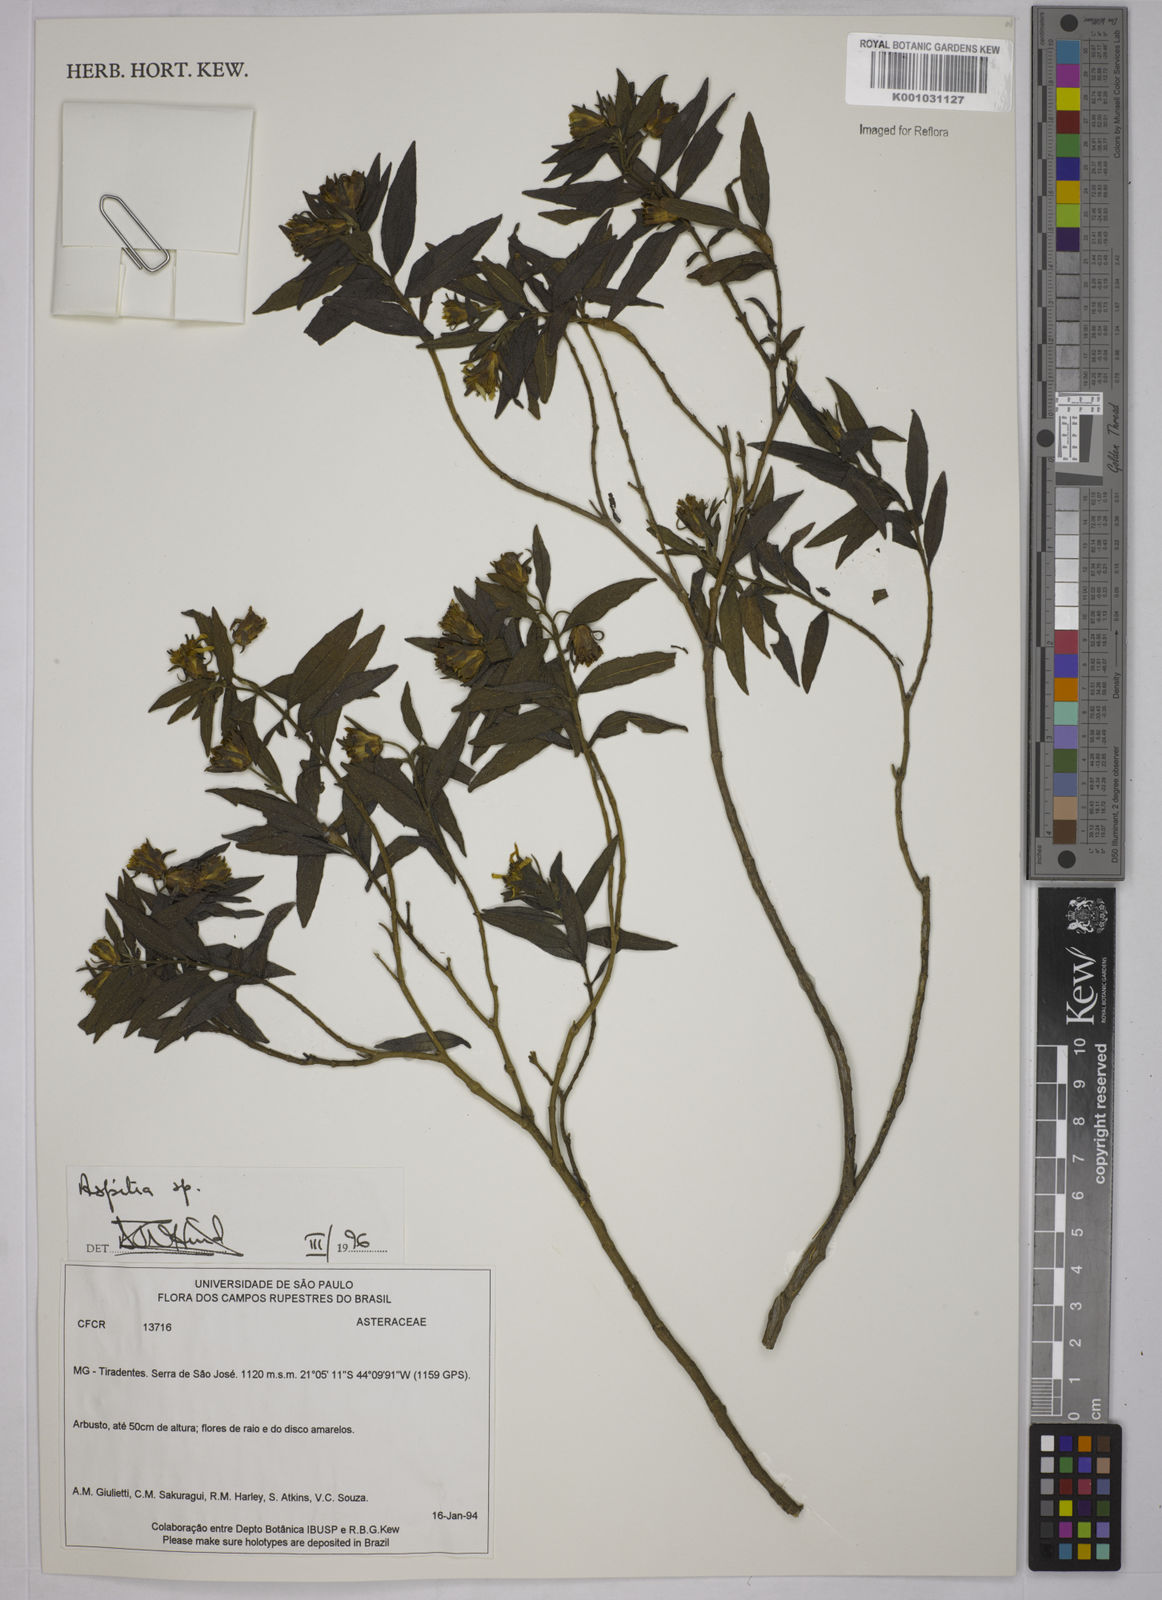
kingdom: Plantae
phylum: Tracheophyta
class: Magnoliopsida
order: Asterales
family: Asteraceae
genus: Aspilia
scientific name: Aspilia
